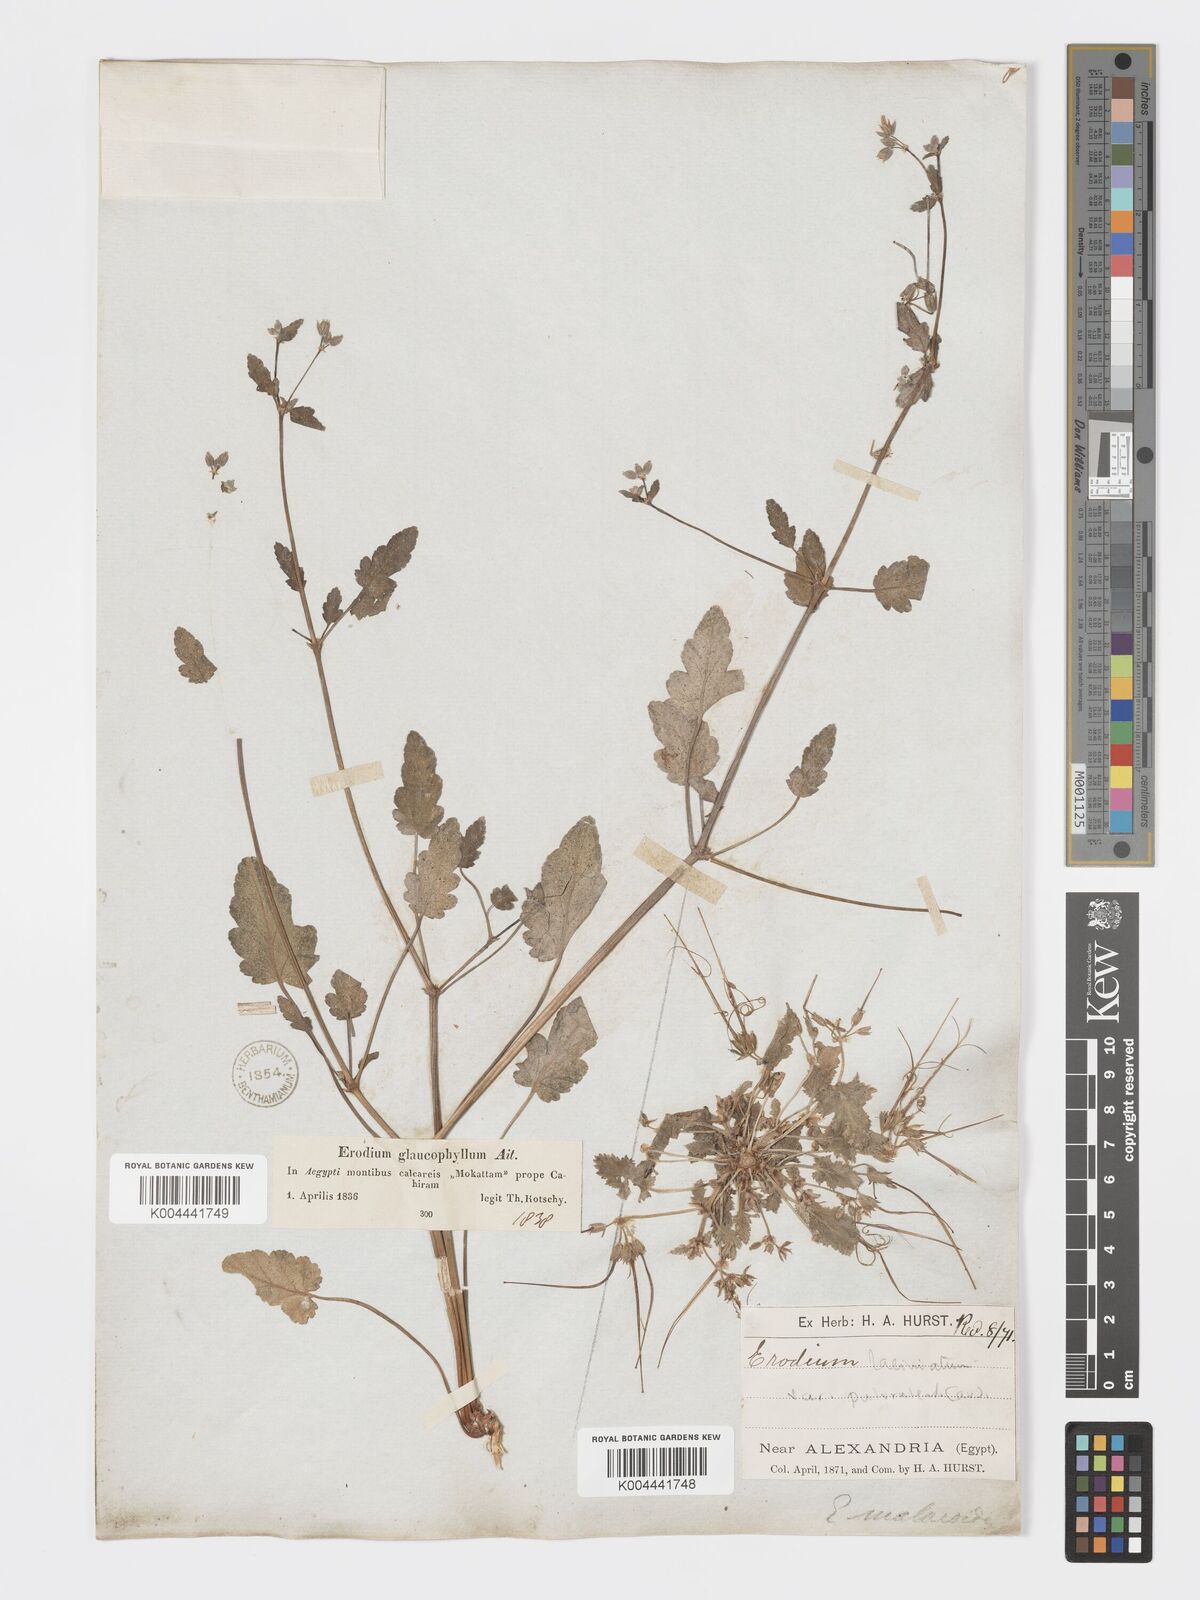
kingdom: Plantae
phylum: Tracheophyta
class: Magnoliopsida
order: Geraniales
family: Geraniaceae
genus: Erodium
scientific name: Erodium glaucophyllum
